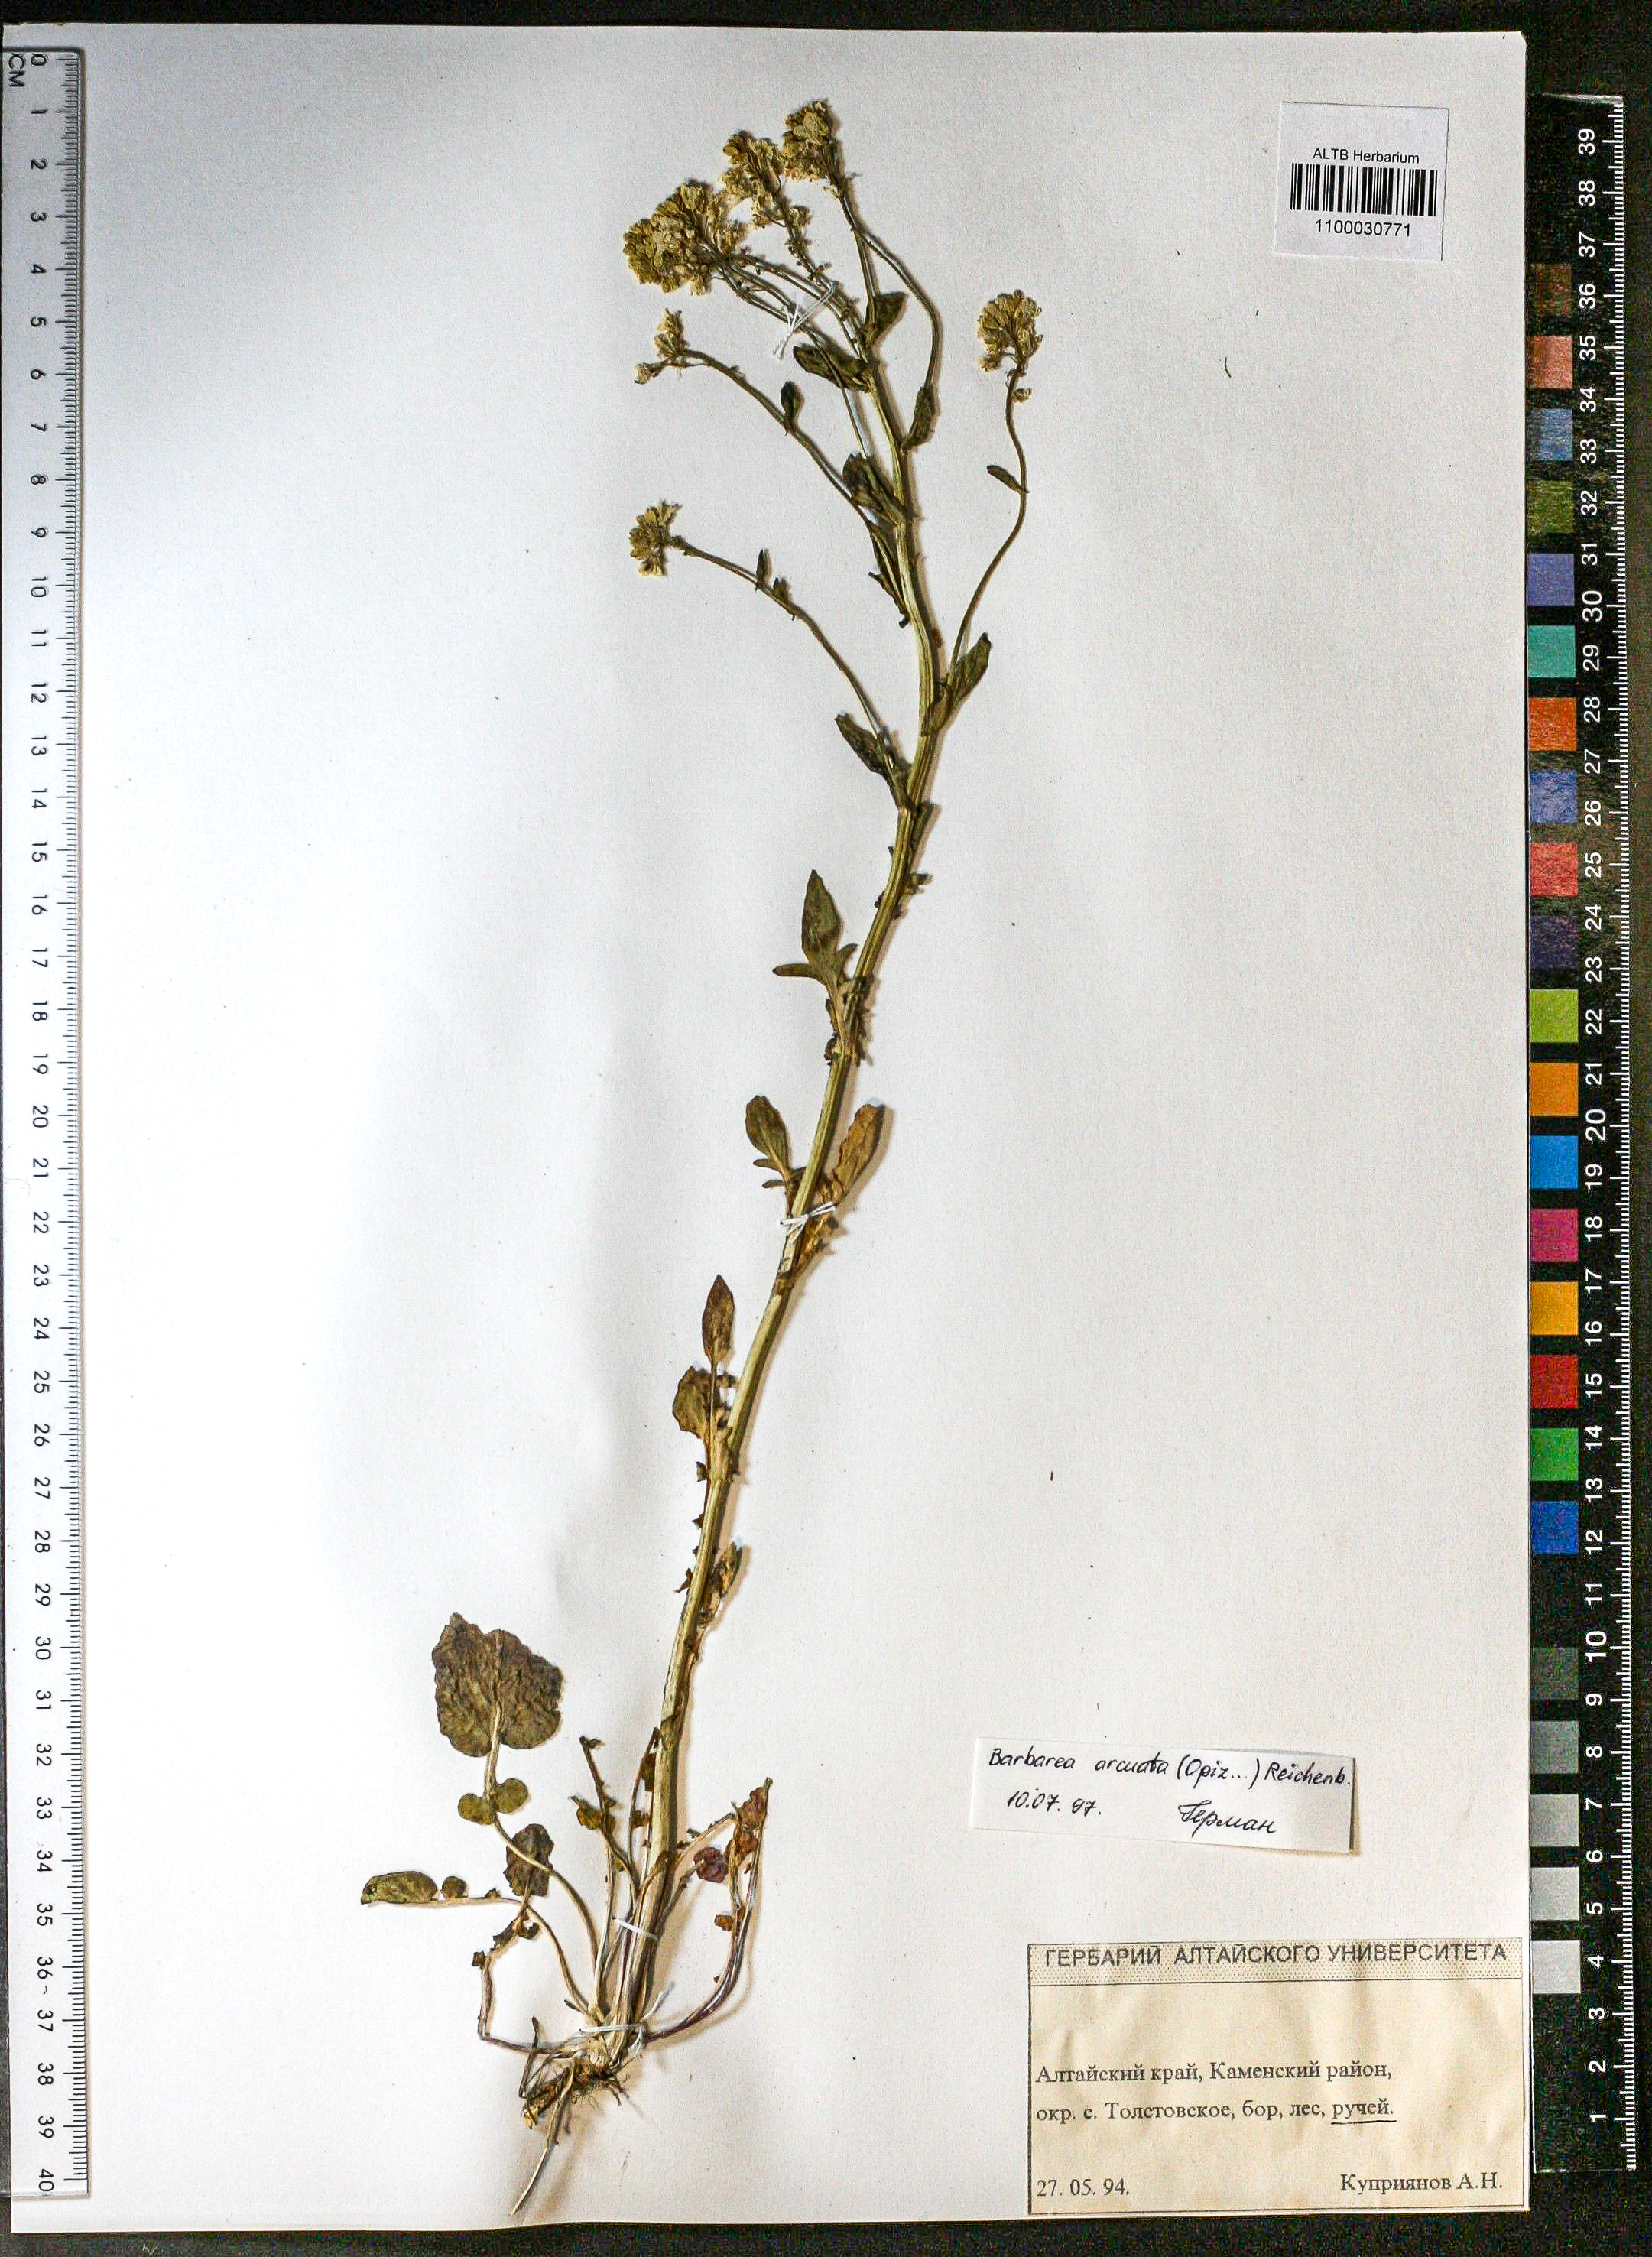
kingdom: Plantae
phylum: Tracheophyta
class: Magnoliopsida
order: Brassicales
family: Brassicaceae
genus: Barbarea
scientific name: Barbarea vulgaris
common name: Cressy-greens
